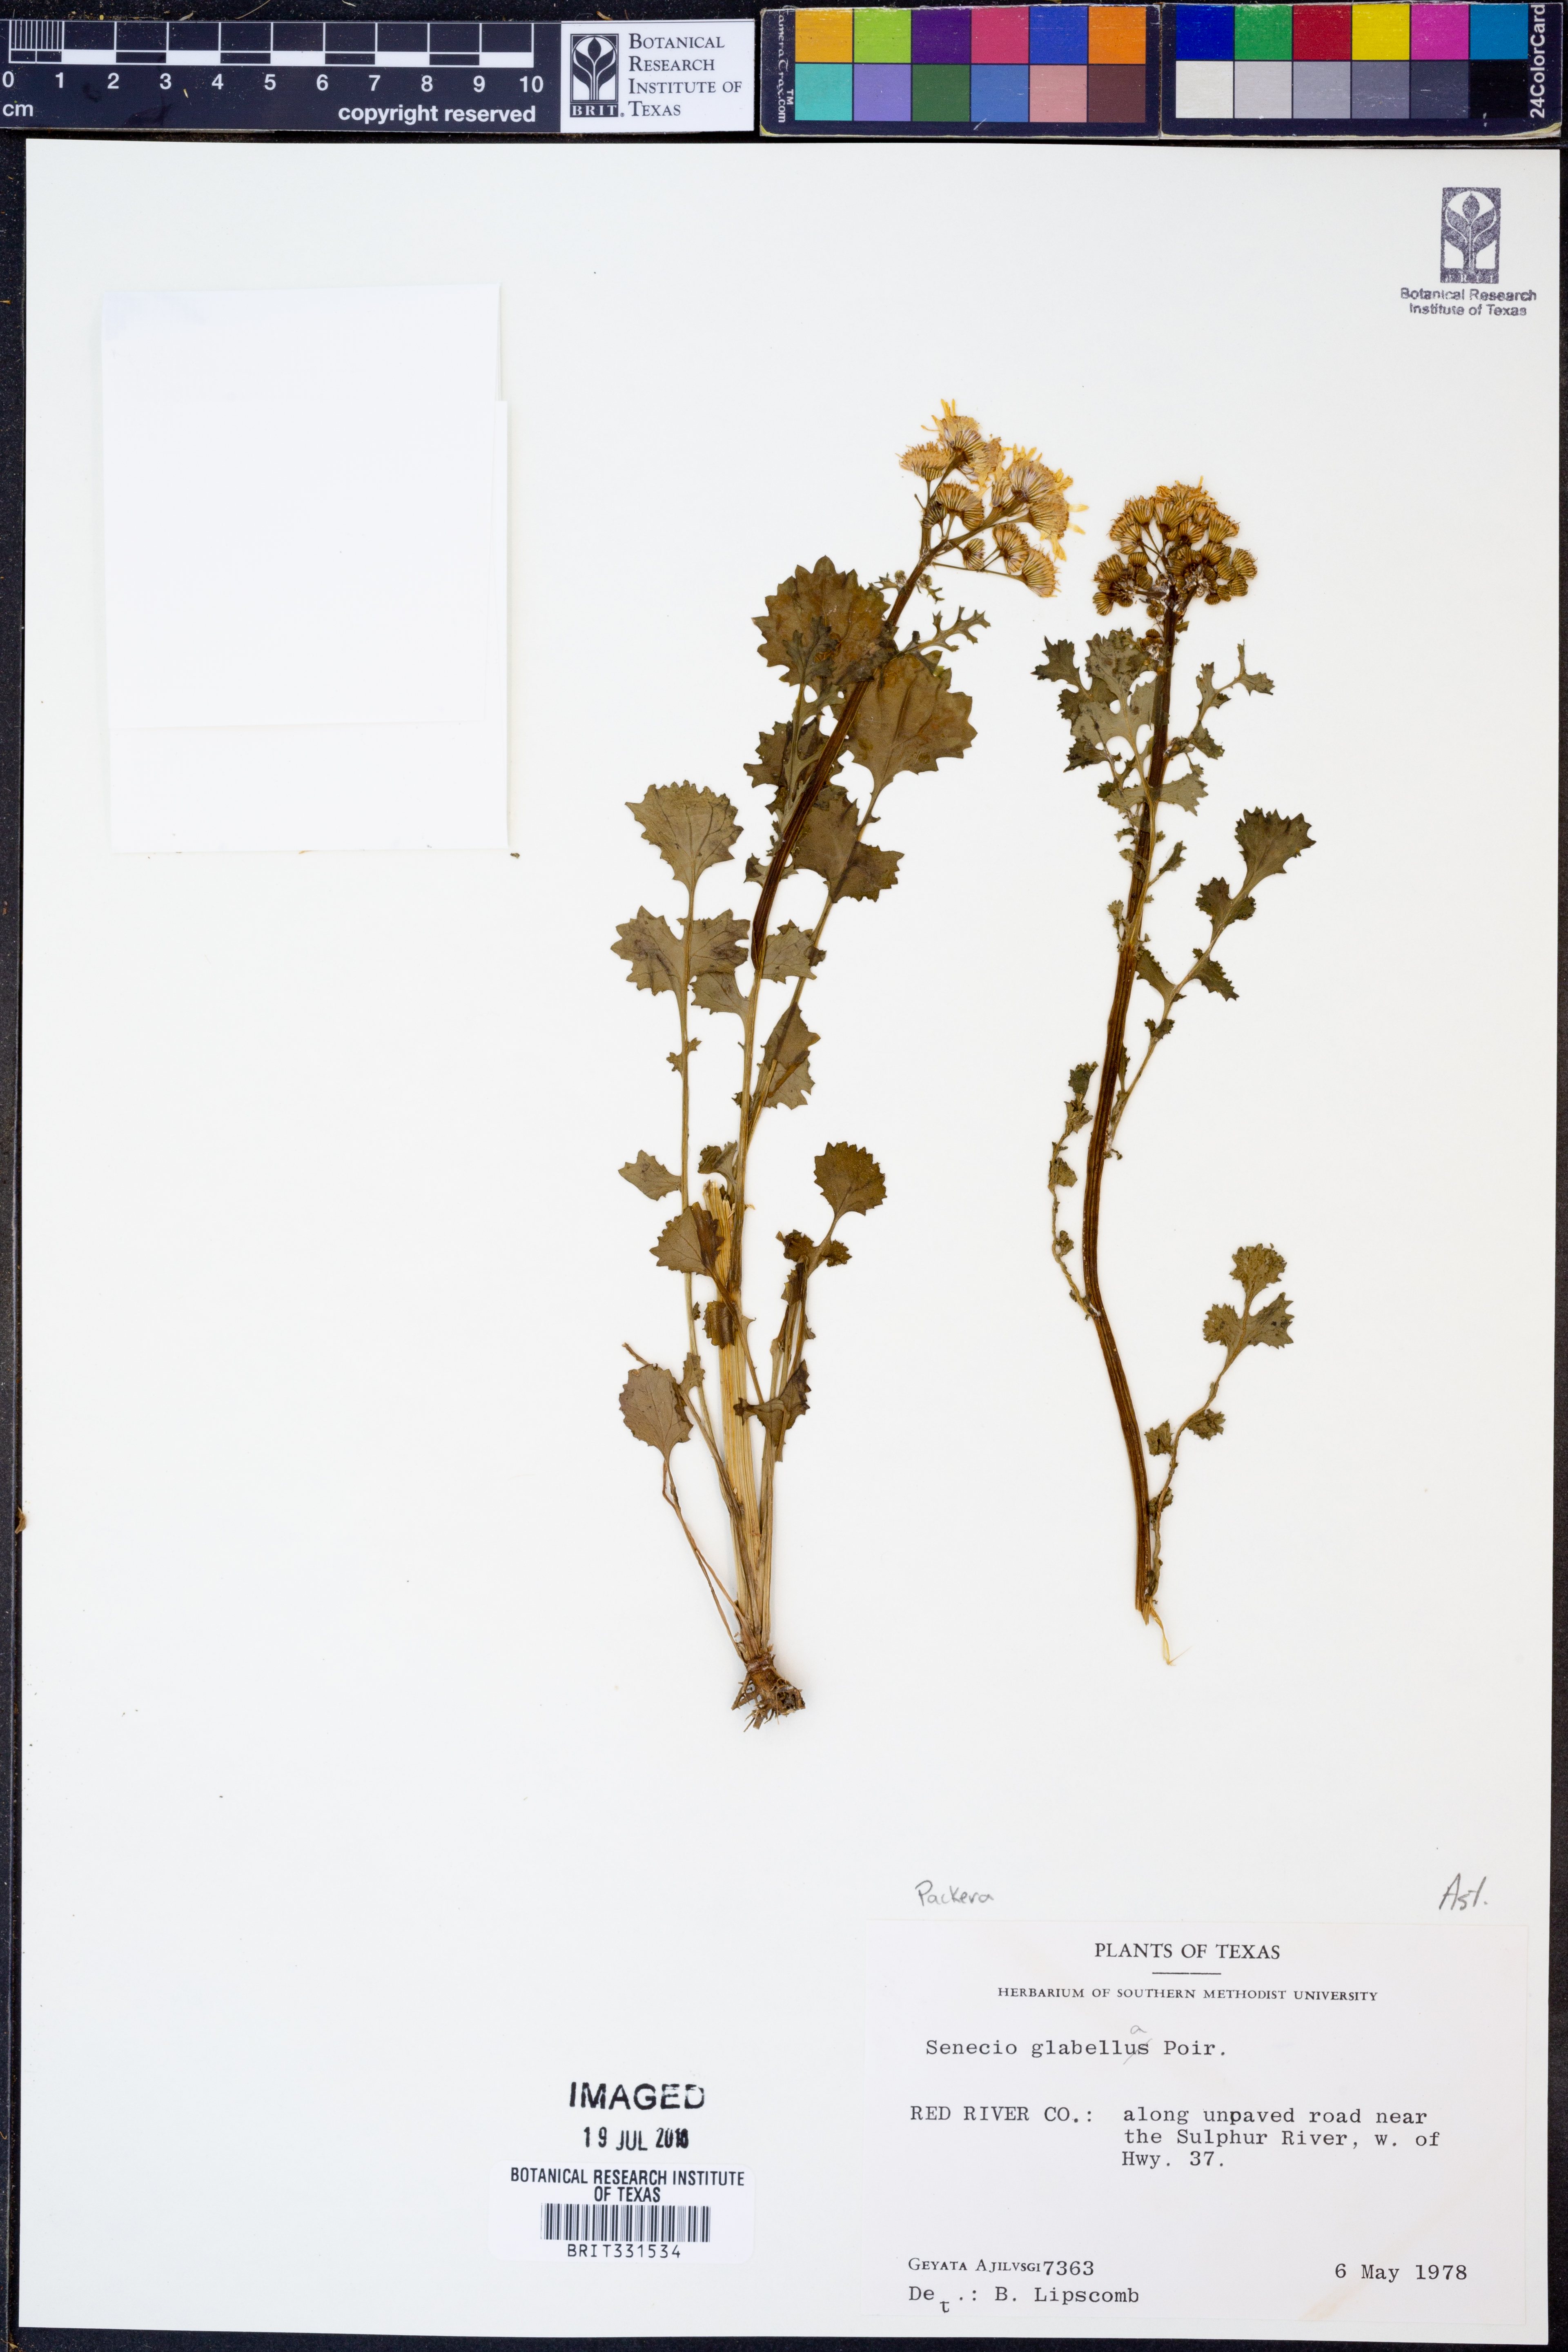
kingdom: Plantae
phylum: Tracheophyta
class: Magnoliopsida
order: Asterales
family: Asteraceae
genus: Packera
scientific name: Packera glabella
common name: Butterweed
